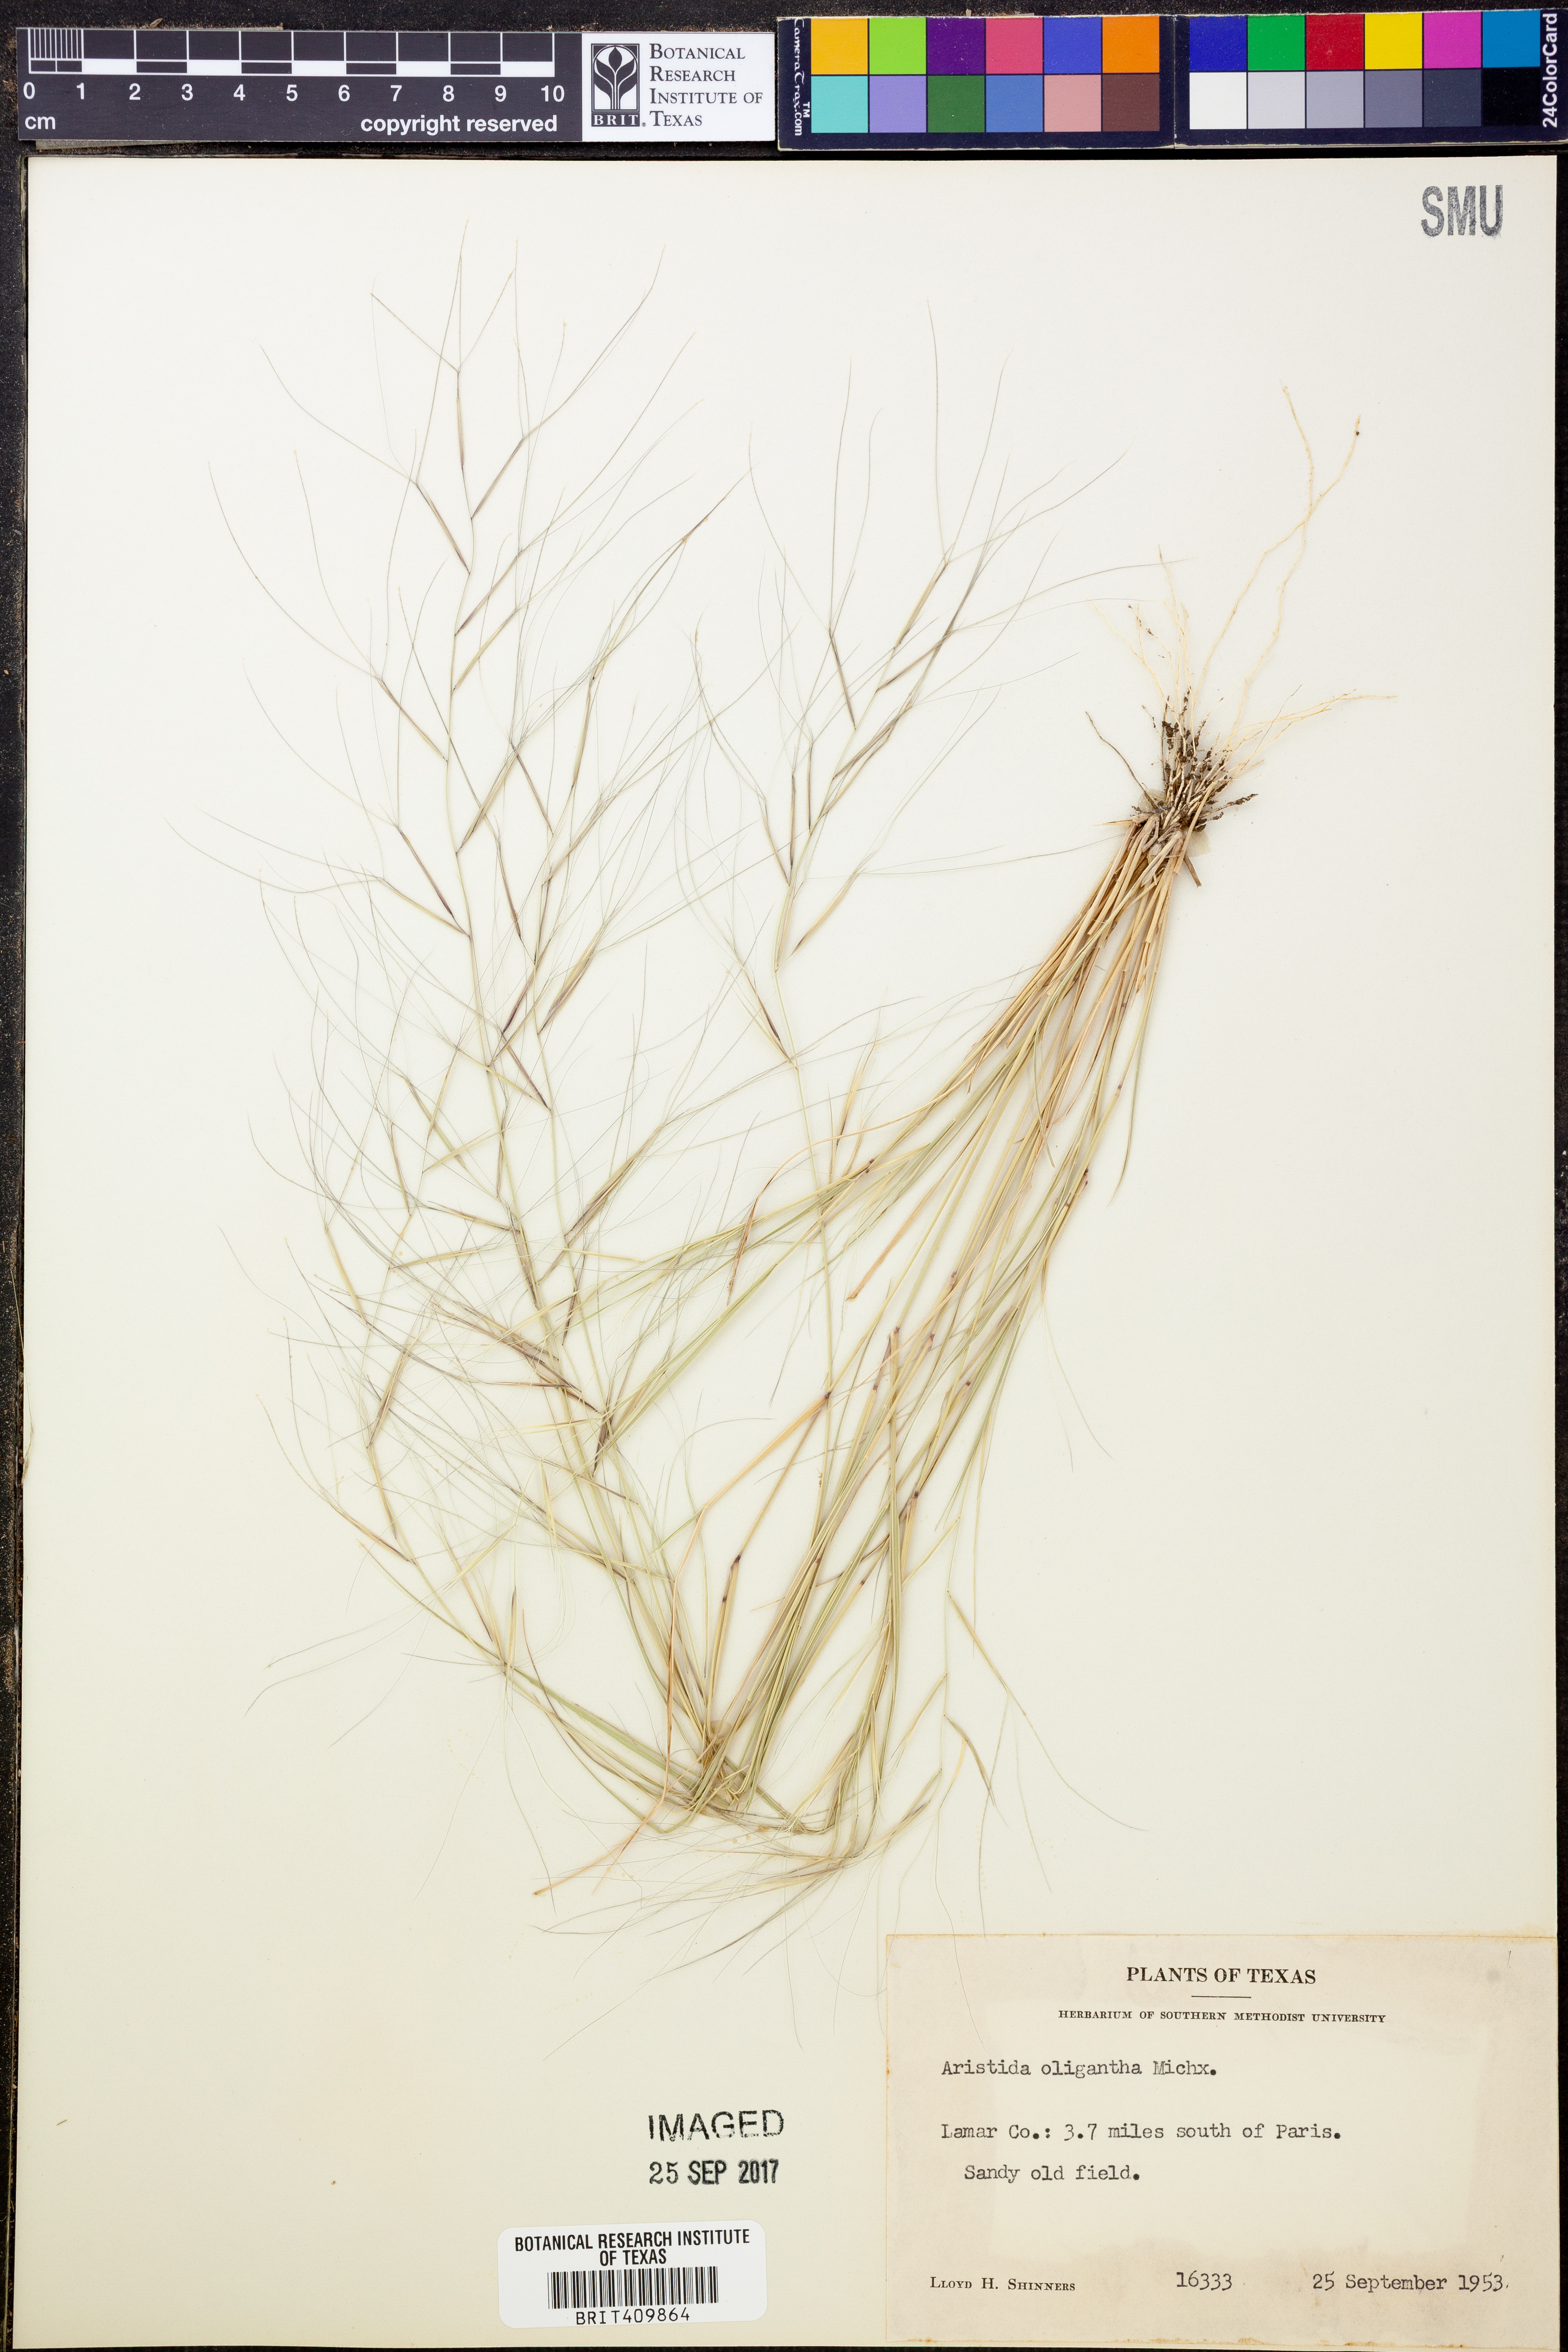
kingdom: Plantae
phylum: Tracheophyta
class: Liliopsida
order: Poales
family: Poaceae
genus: Aristida
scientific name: Aristida oligantha
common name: Few-flowered aristida
